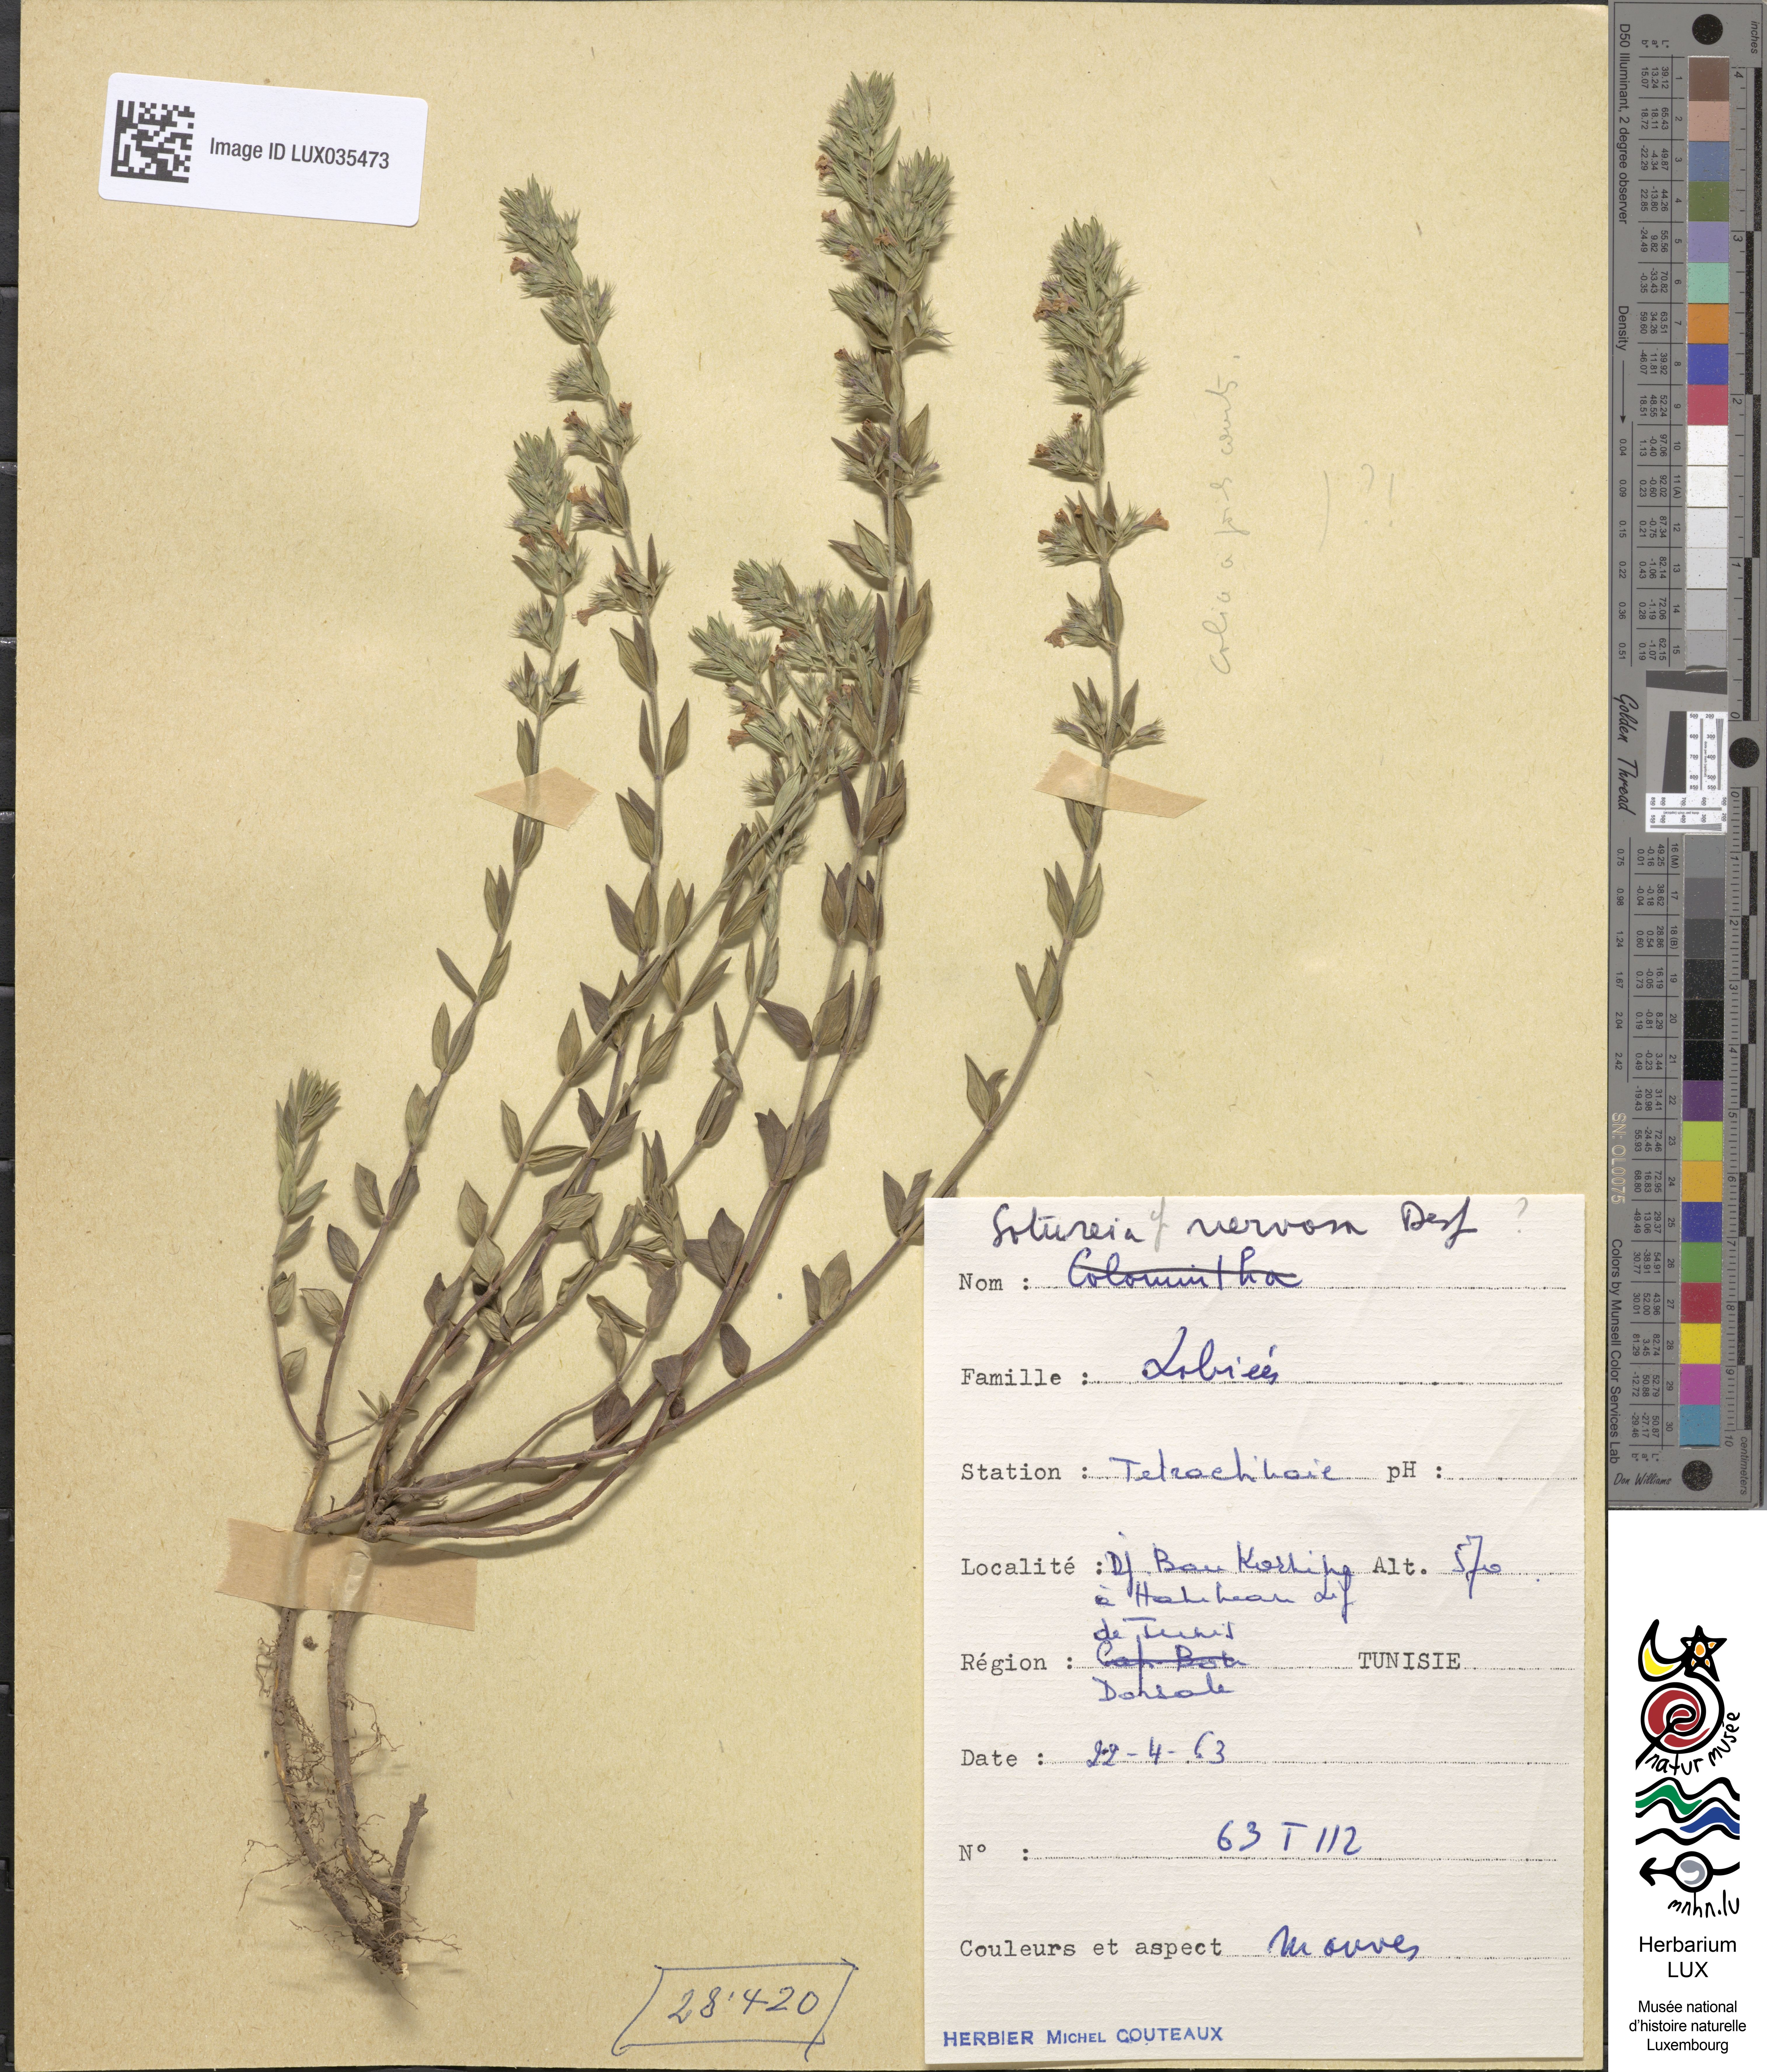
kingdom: Plantae
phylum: Tracheophyta
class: Magnoliopsida
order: Lamiales
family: Lamiaceae
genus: Micromeria
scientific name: Micromeria nervosa
